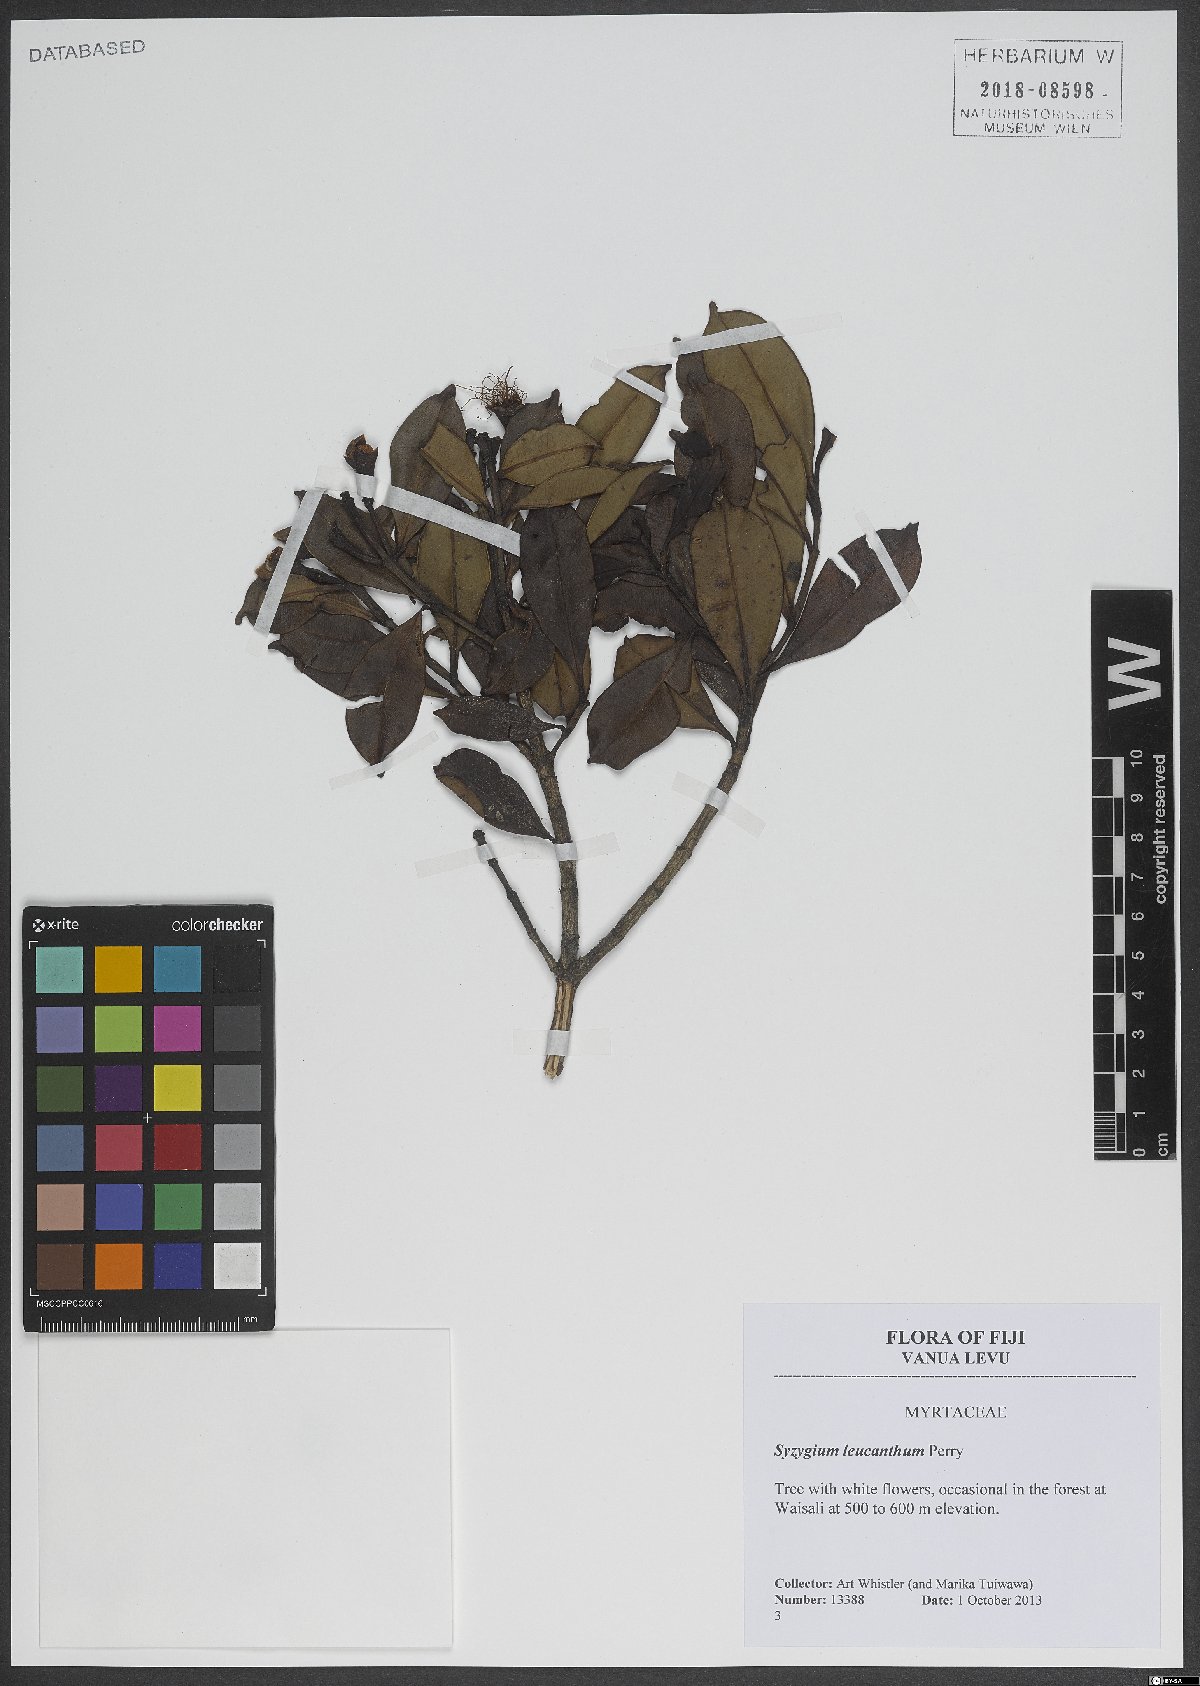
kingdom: Plantae
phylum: Tracheophyta
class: Magnoliopsida
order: Myrtales
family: Myrtaceae
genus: Syzygium
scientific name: Syzygium leucanthum
